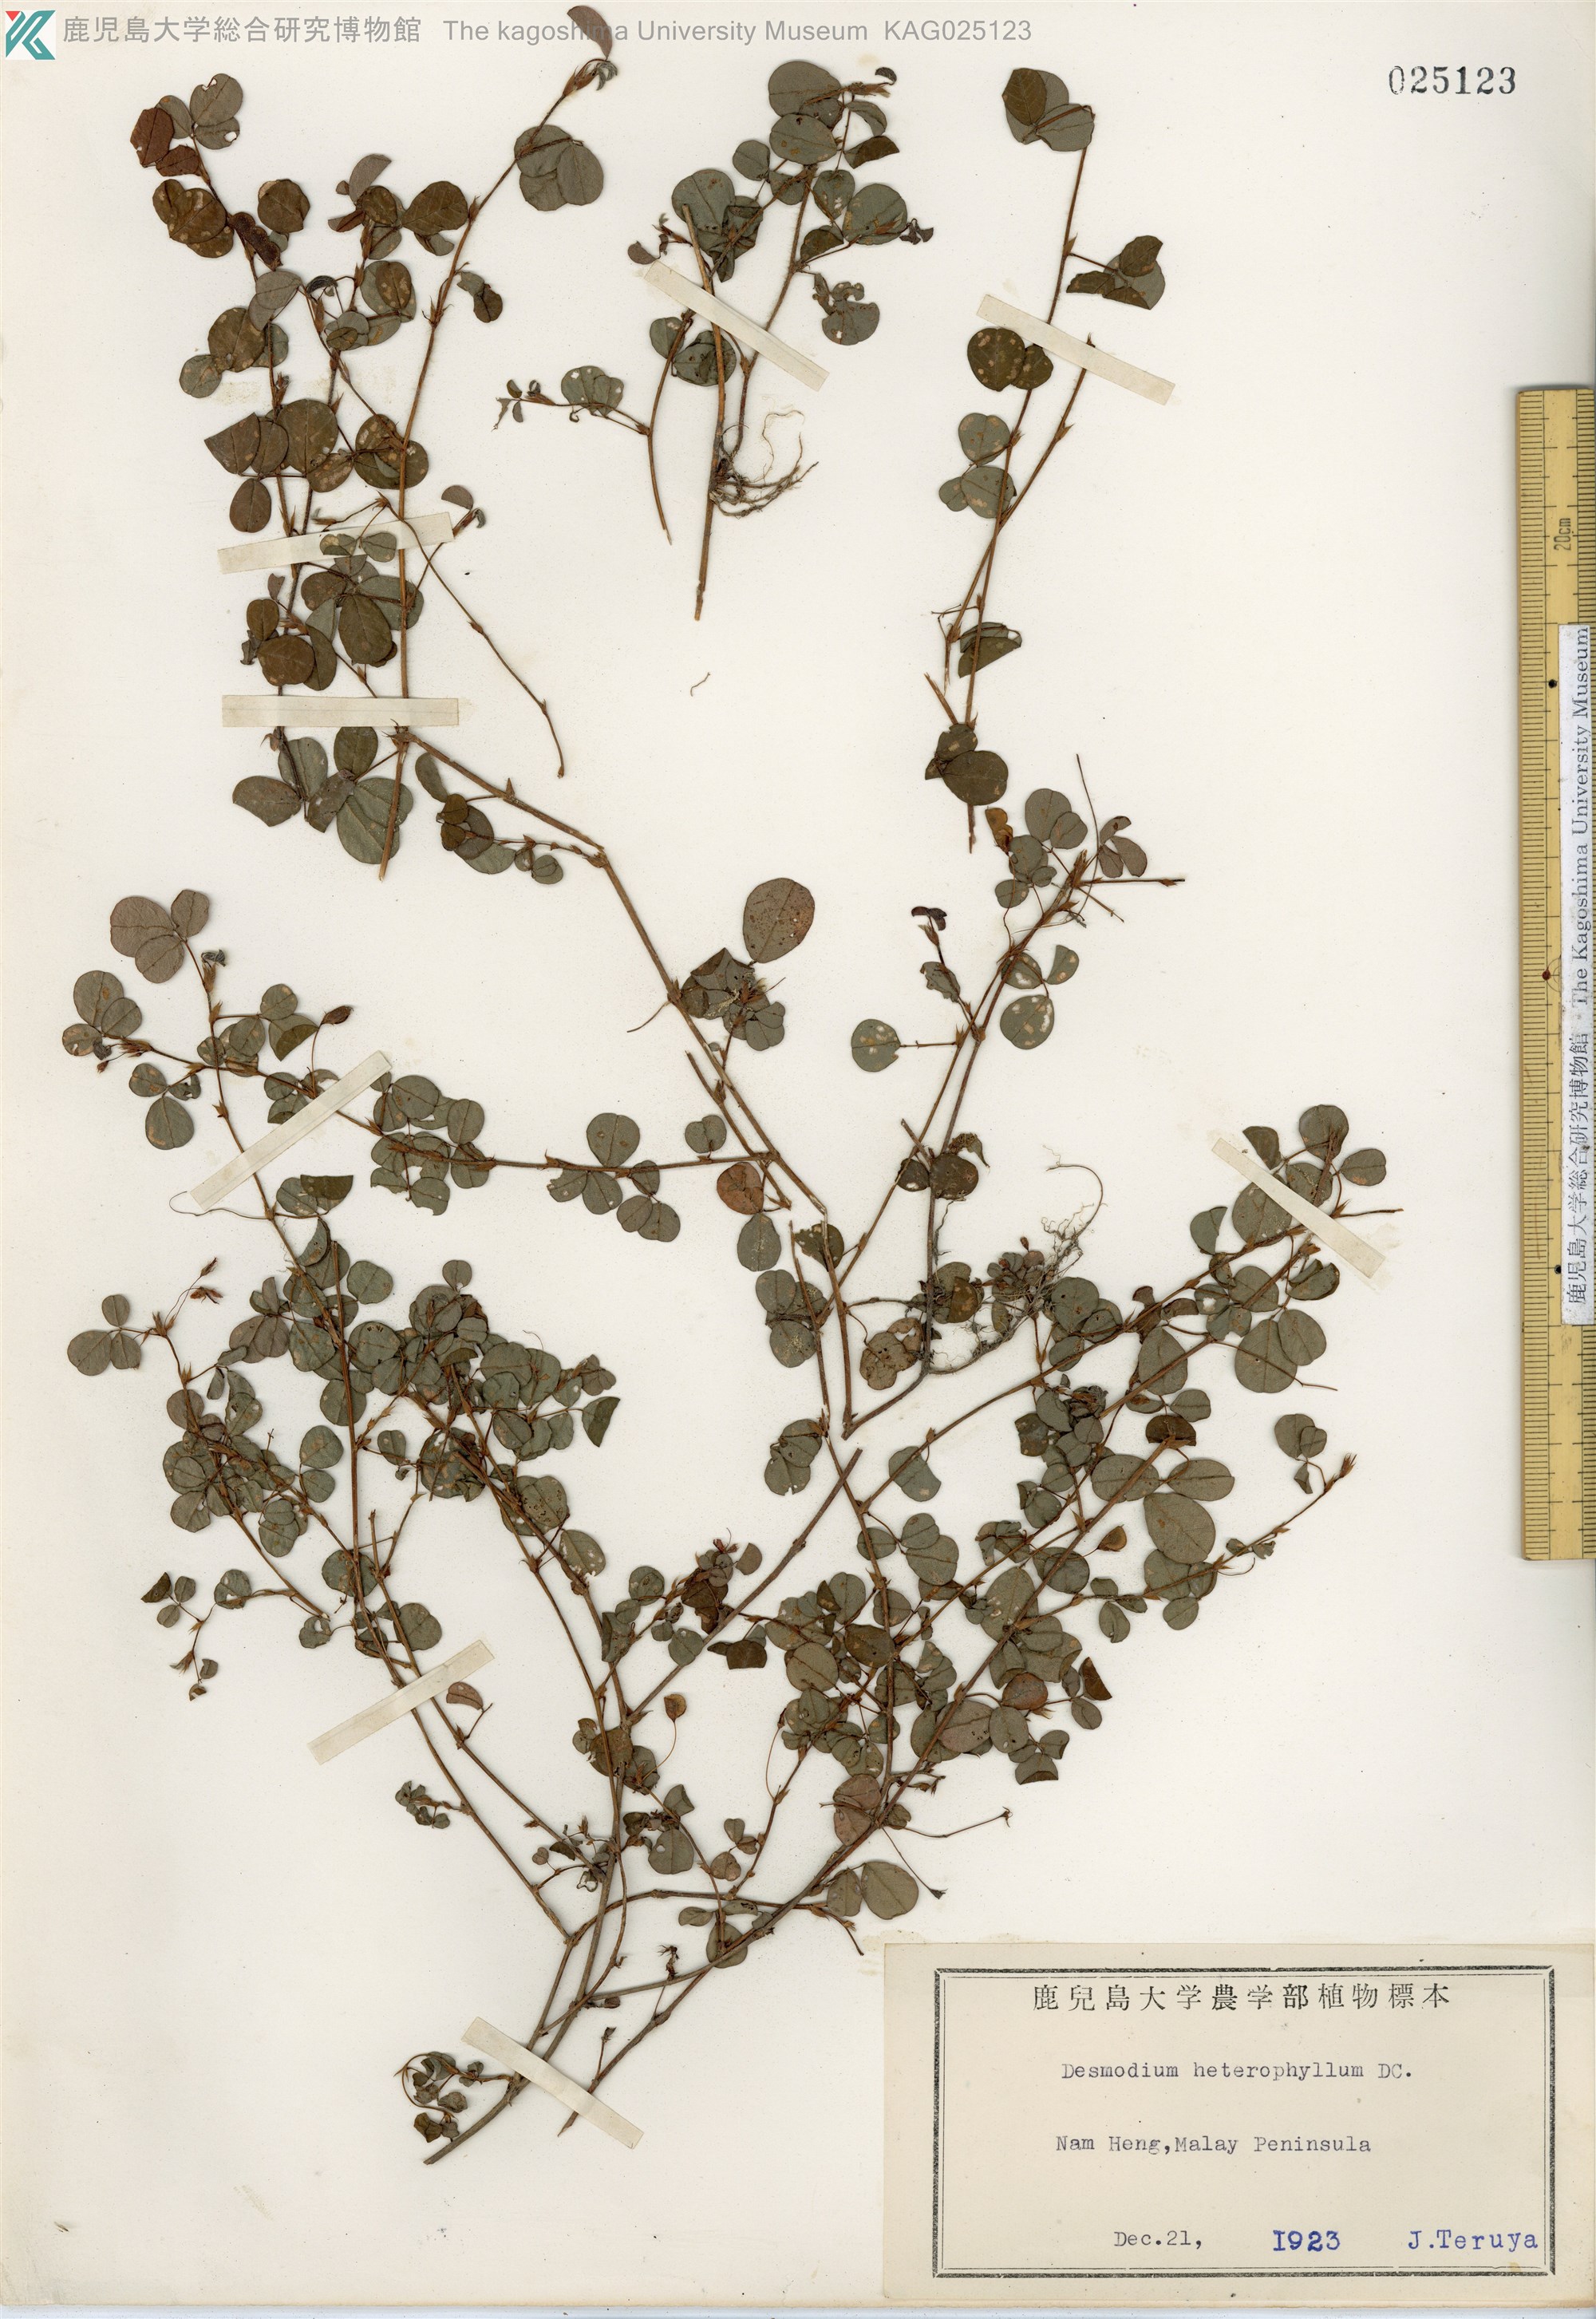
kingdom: Plantae
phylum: Tracheophyta
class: Magnoliopsida
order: Fabales
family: Fabaceae
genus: Desmodium
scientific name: Desmodium heterophyllum
